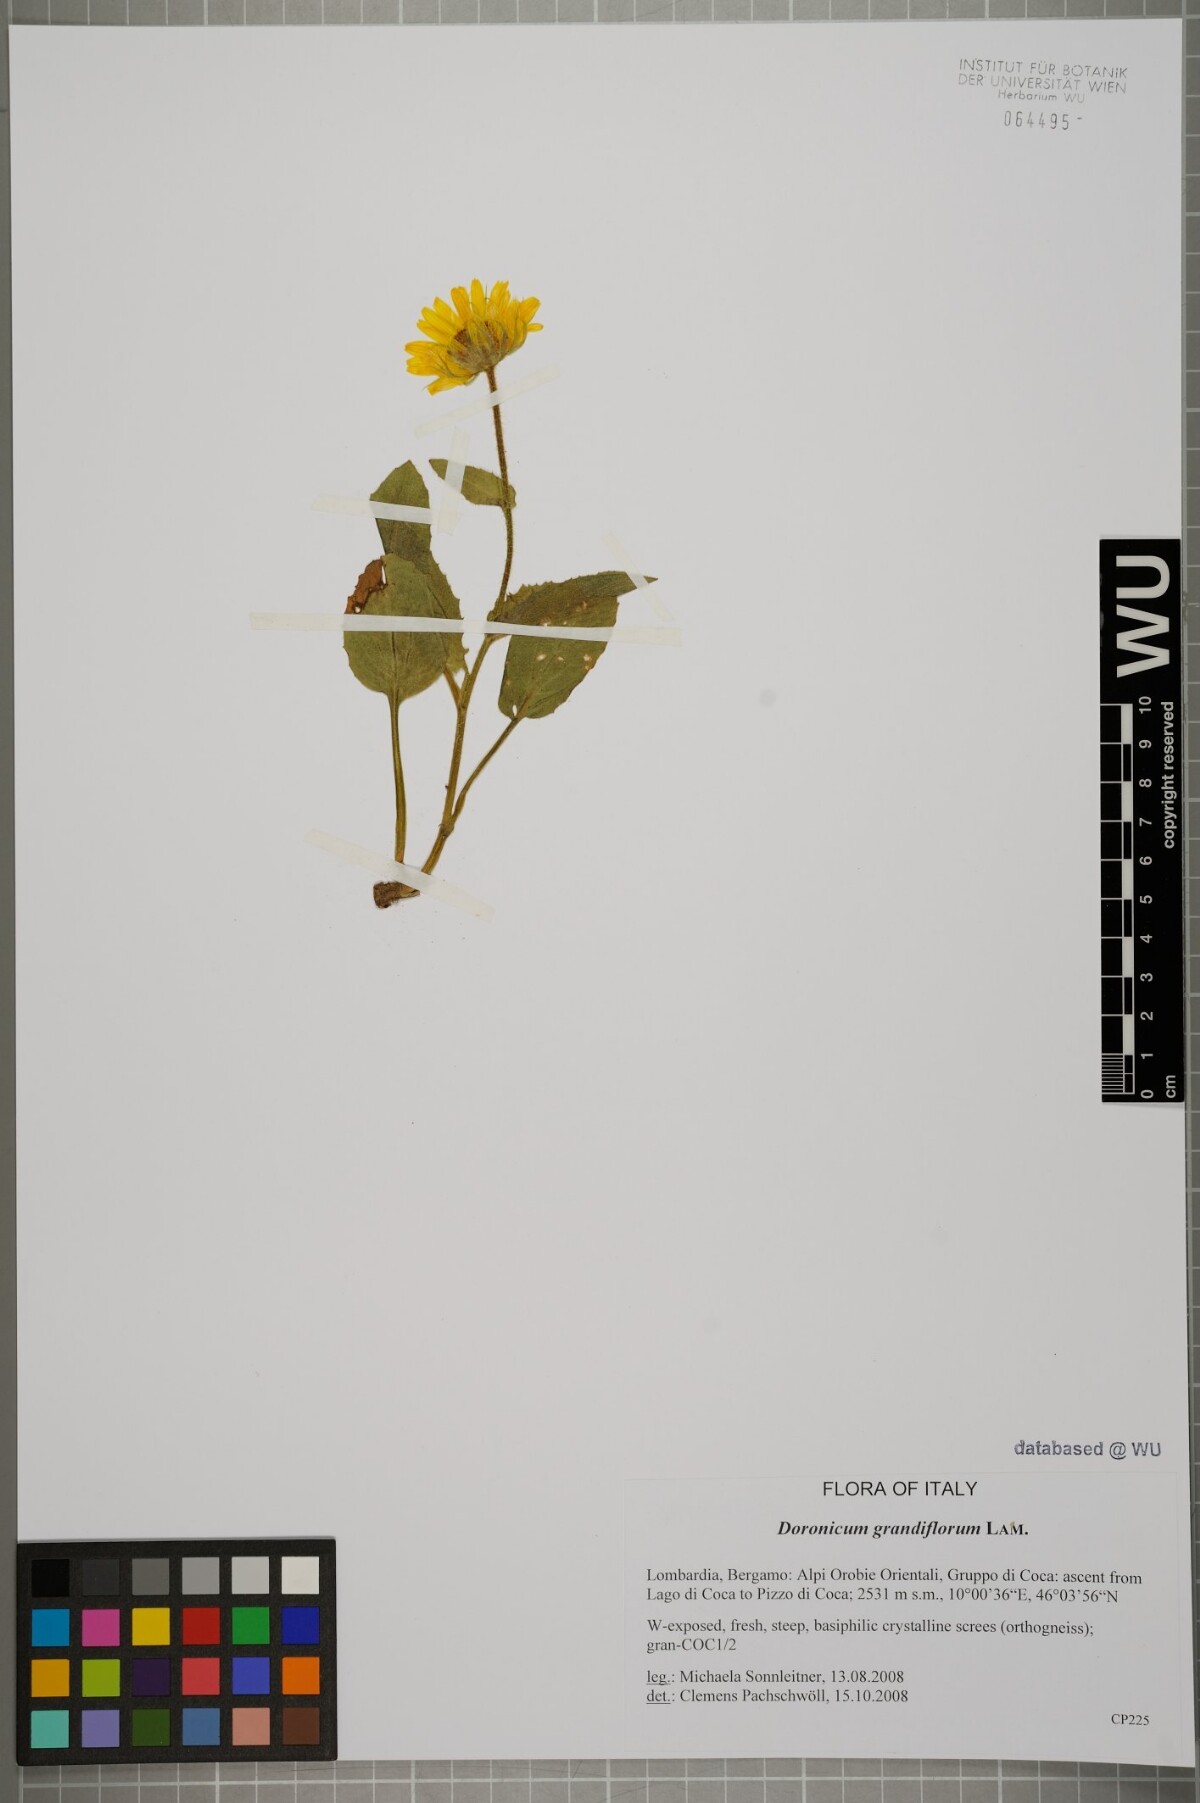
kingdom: Plantae
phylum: Tracheophyta
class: Magnoliopsida
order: Asterales
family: Asteraceae
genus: Doronicum
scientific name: Doronicum grandiflorum
